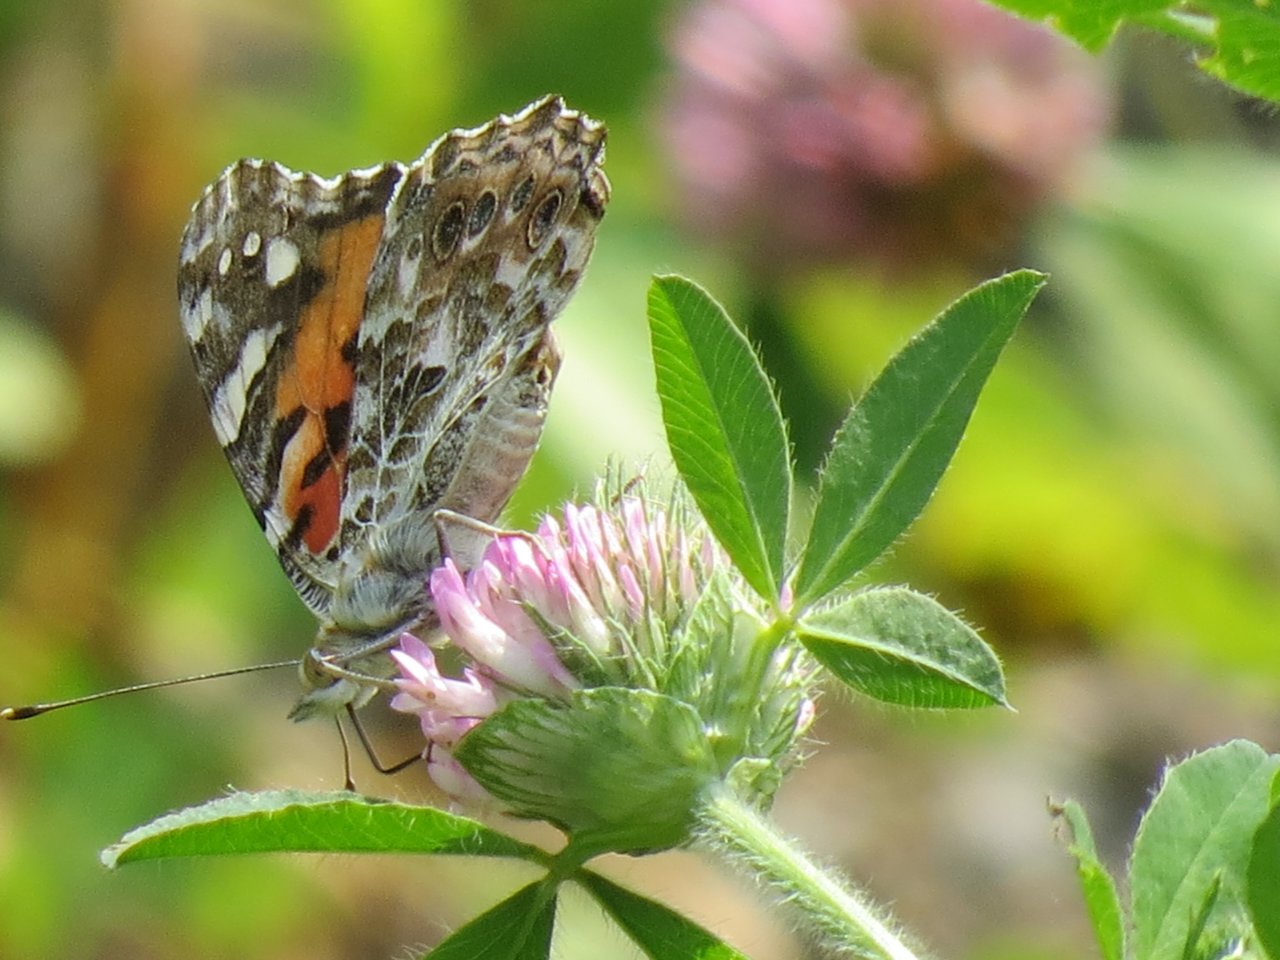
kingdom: Animalia
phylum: Arthropoda
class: Insecta
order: Lepidoptera
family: Nymphalidae
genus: Vanessa
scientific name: Vanessa cardui
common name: Painted Lady
